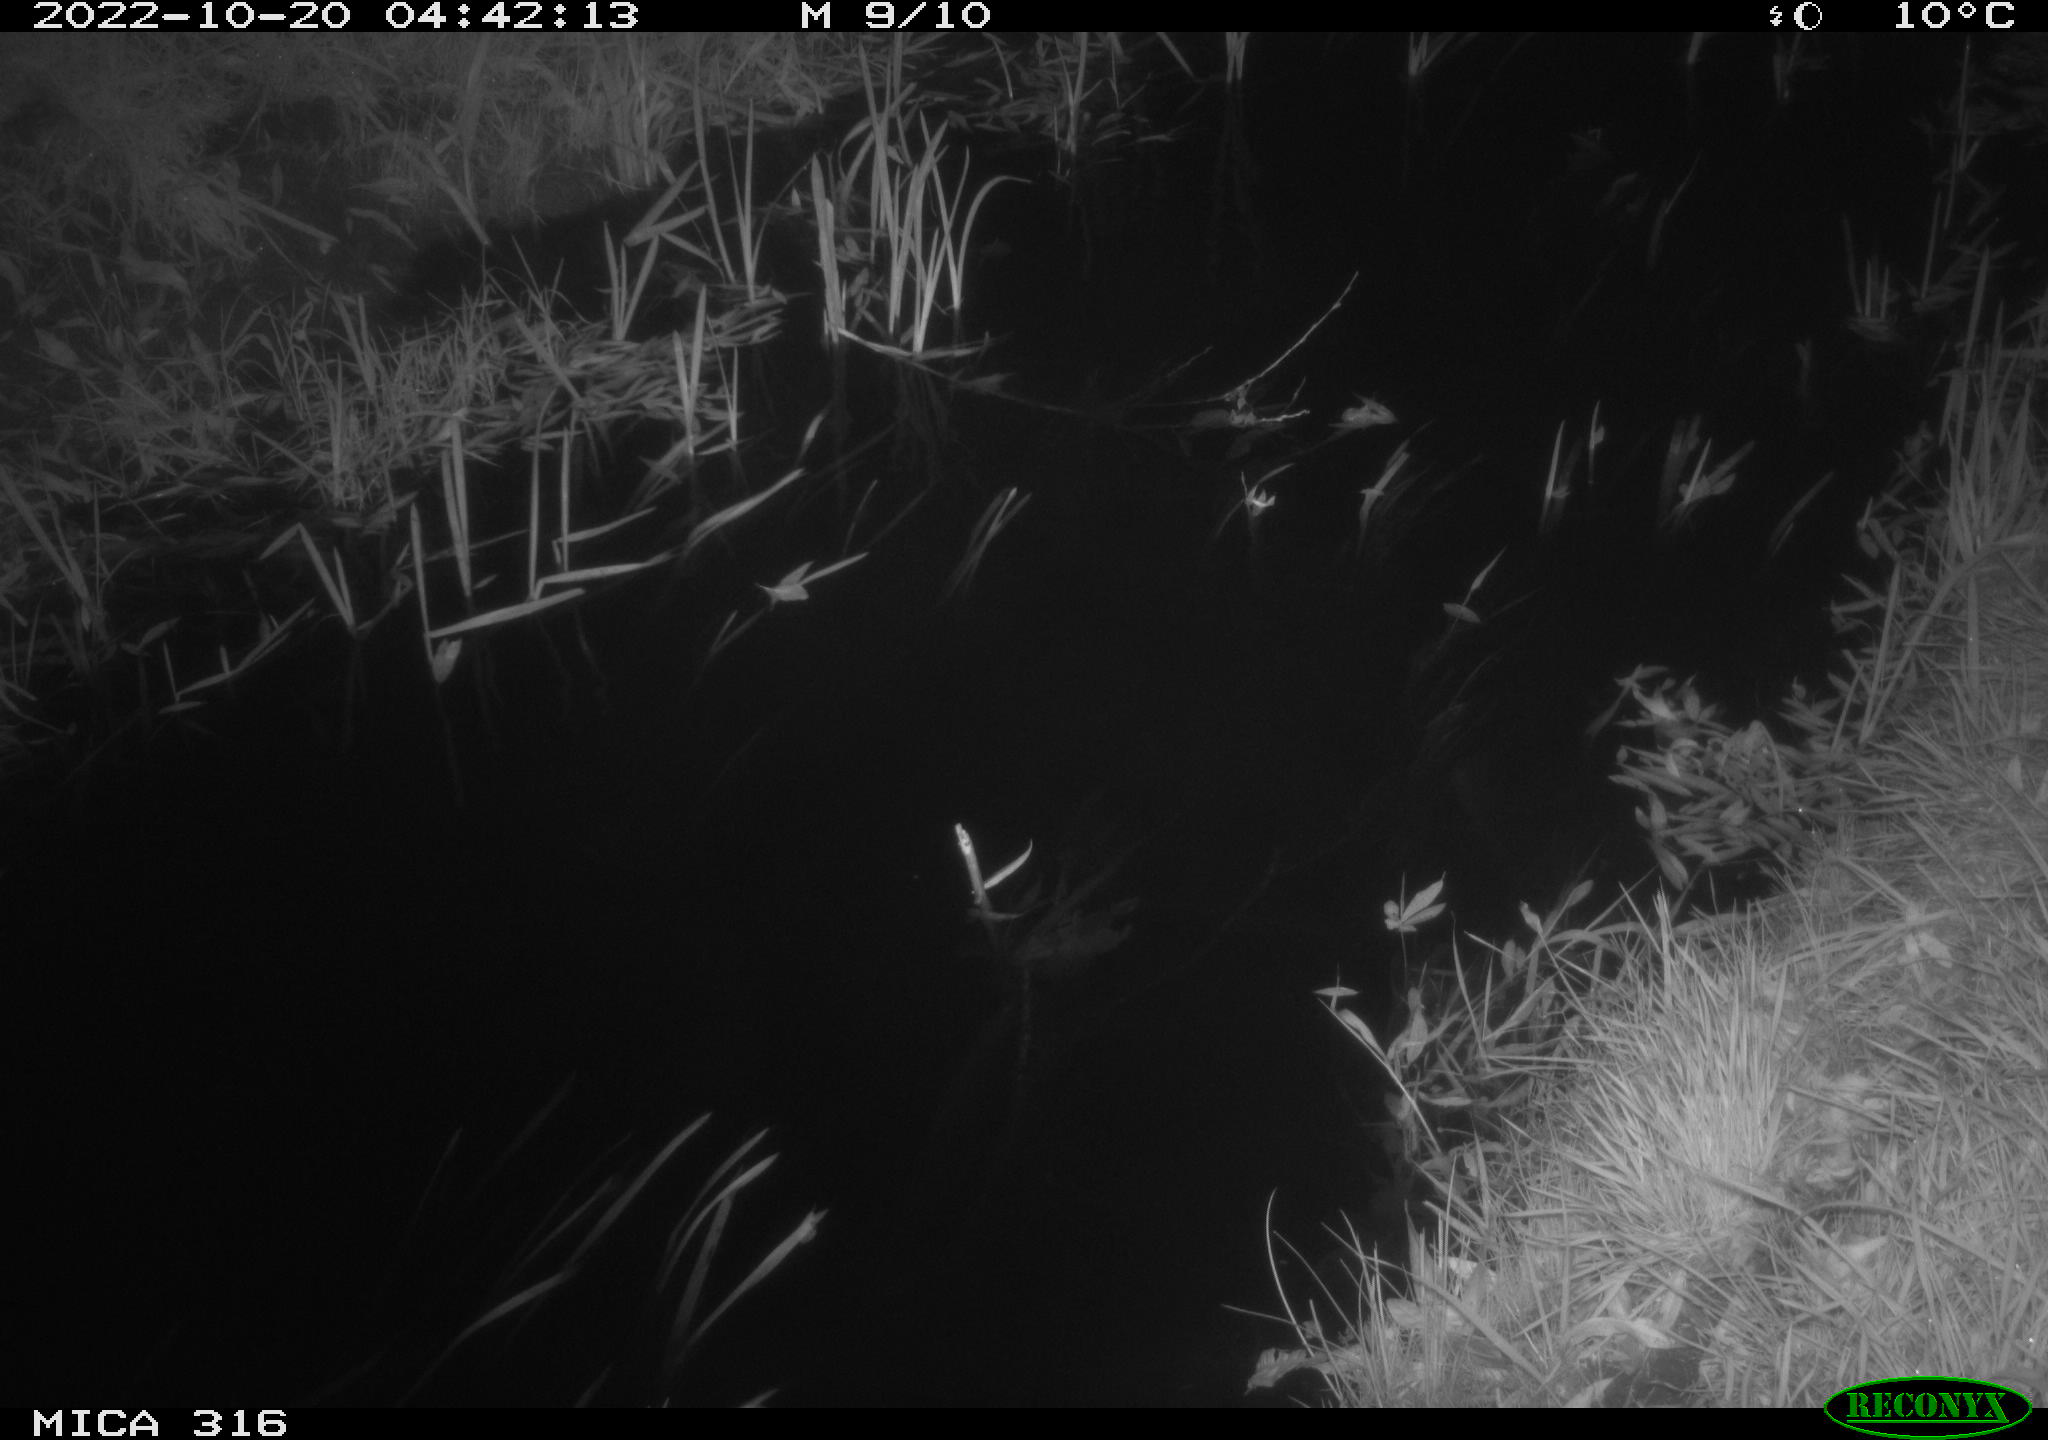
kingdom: Animalia
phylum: Chordata
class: Mammalia
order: Rodentia
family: Muridae
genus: Rattus
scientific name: Rattus norvegicus
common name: Brown rat
